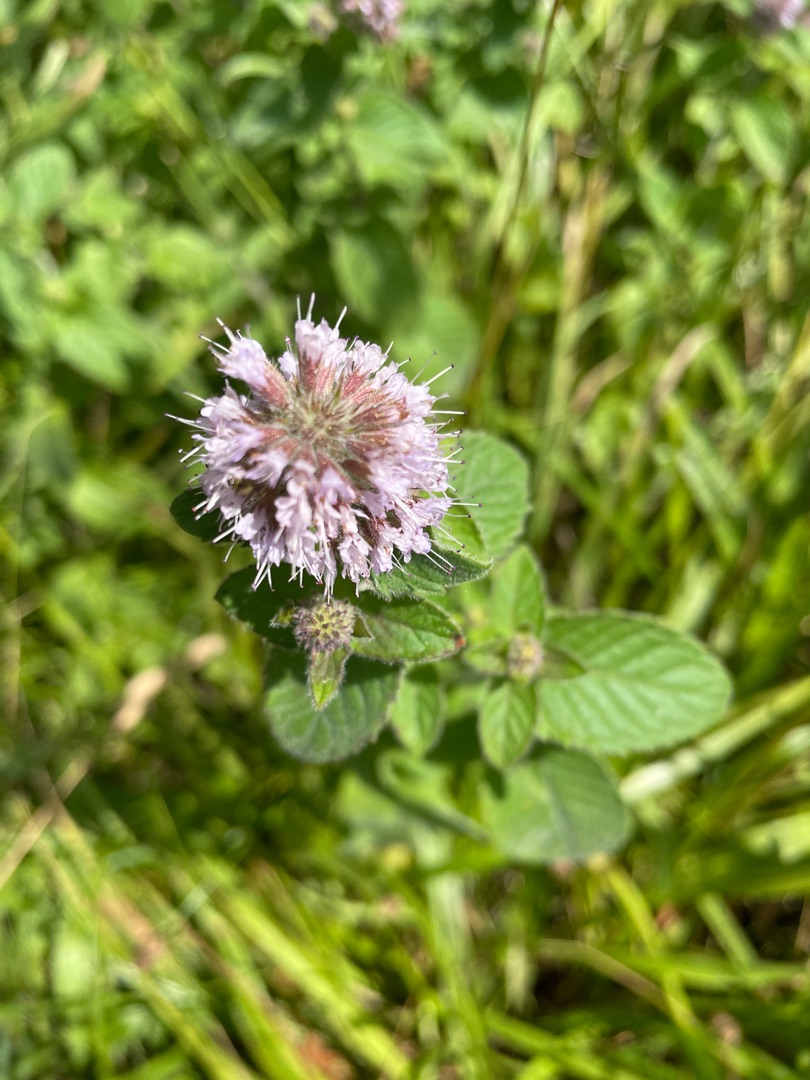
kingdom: Plantae
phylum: Tracheophyta
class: Magnoliopsida
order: Lamiales
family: Lamiaceae
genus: Mentha
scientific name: Mentha aquatica
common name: Vand-mynte
